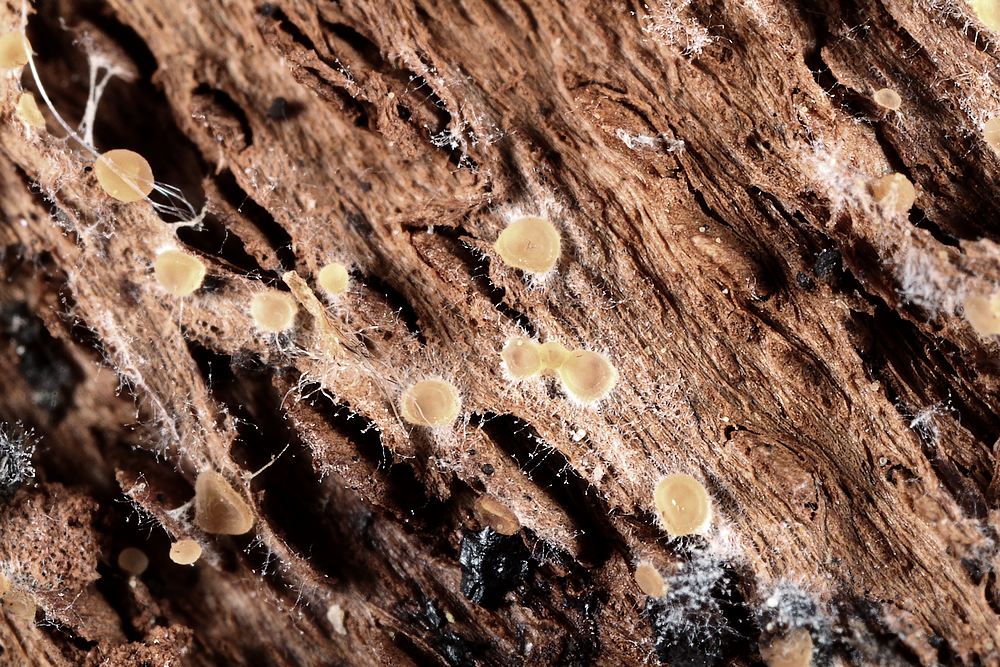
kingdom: Fungi
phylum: Ascomycota
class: Orbiliomycetes
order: Orbiliales
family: Orbiliaceae
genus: Orbilia
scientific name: Orbilia
